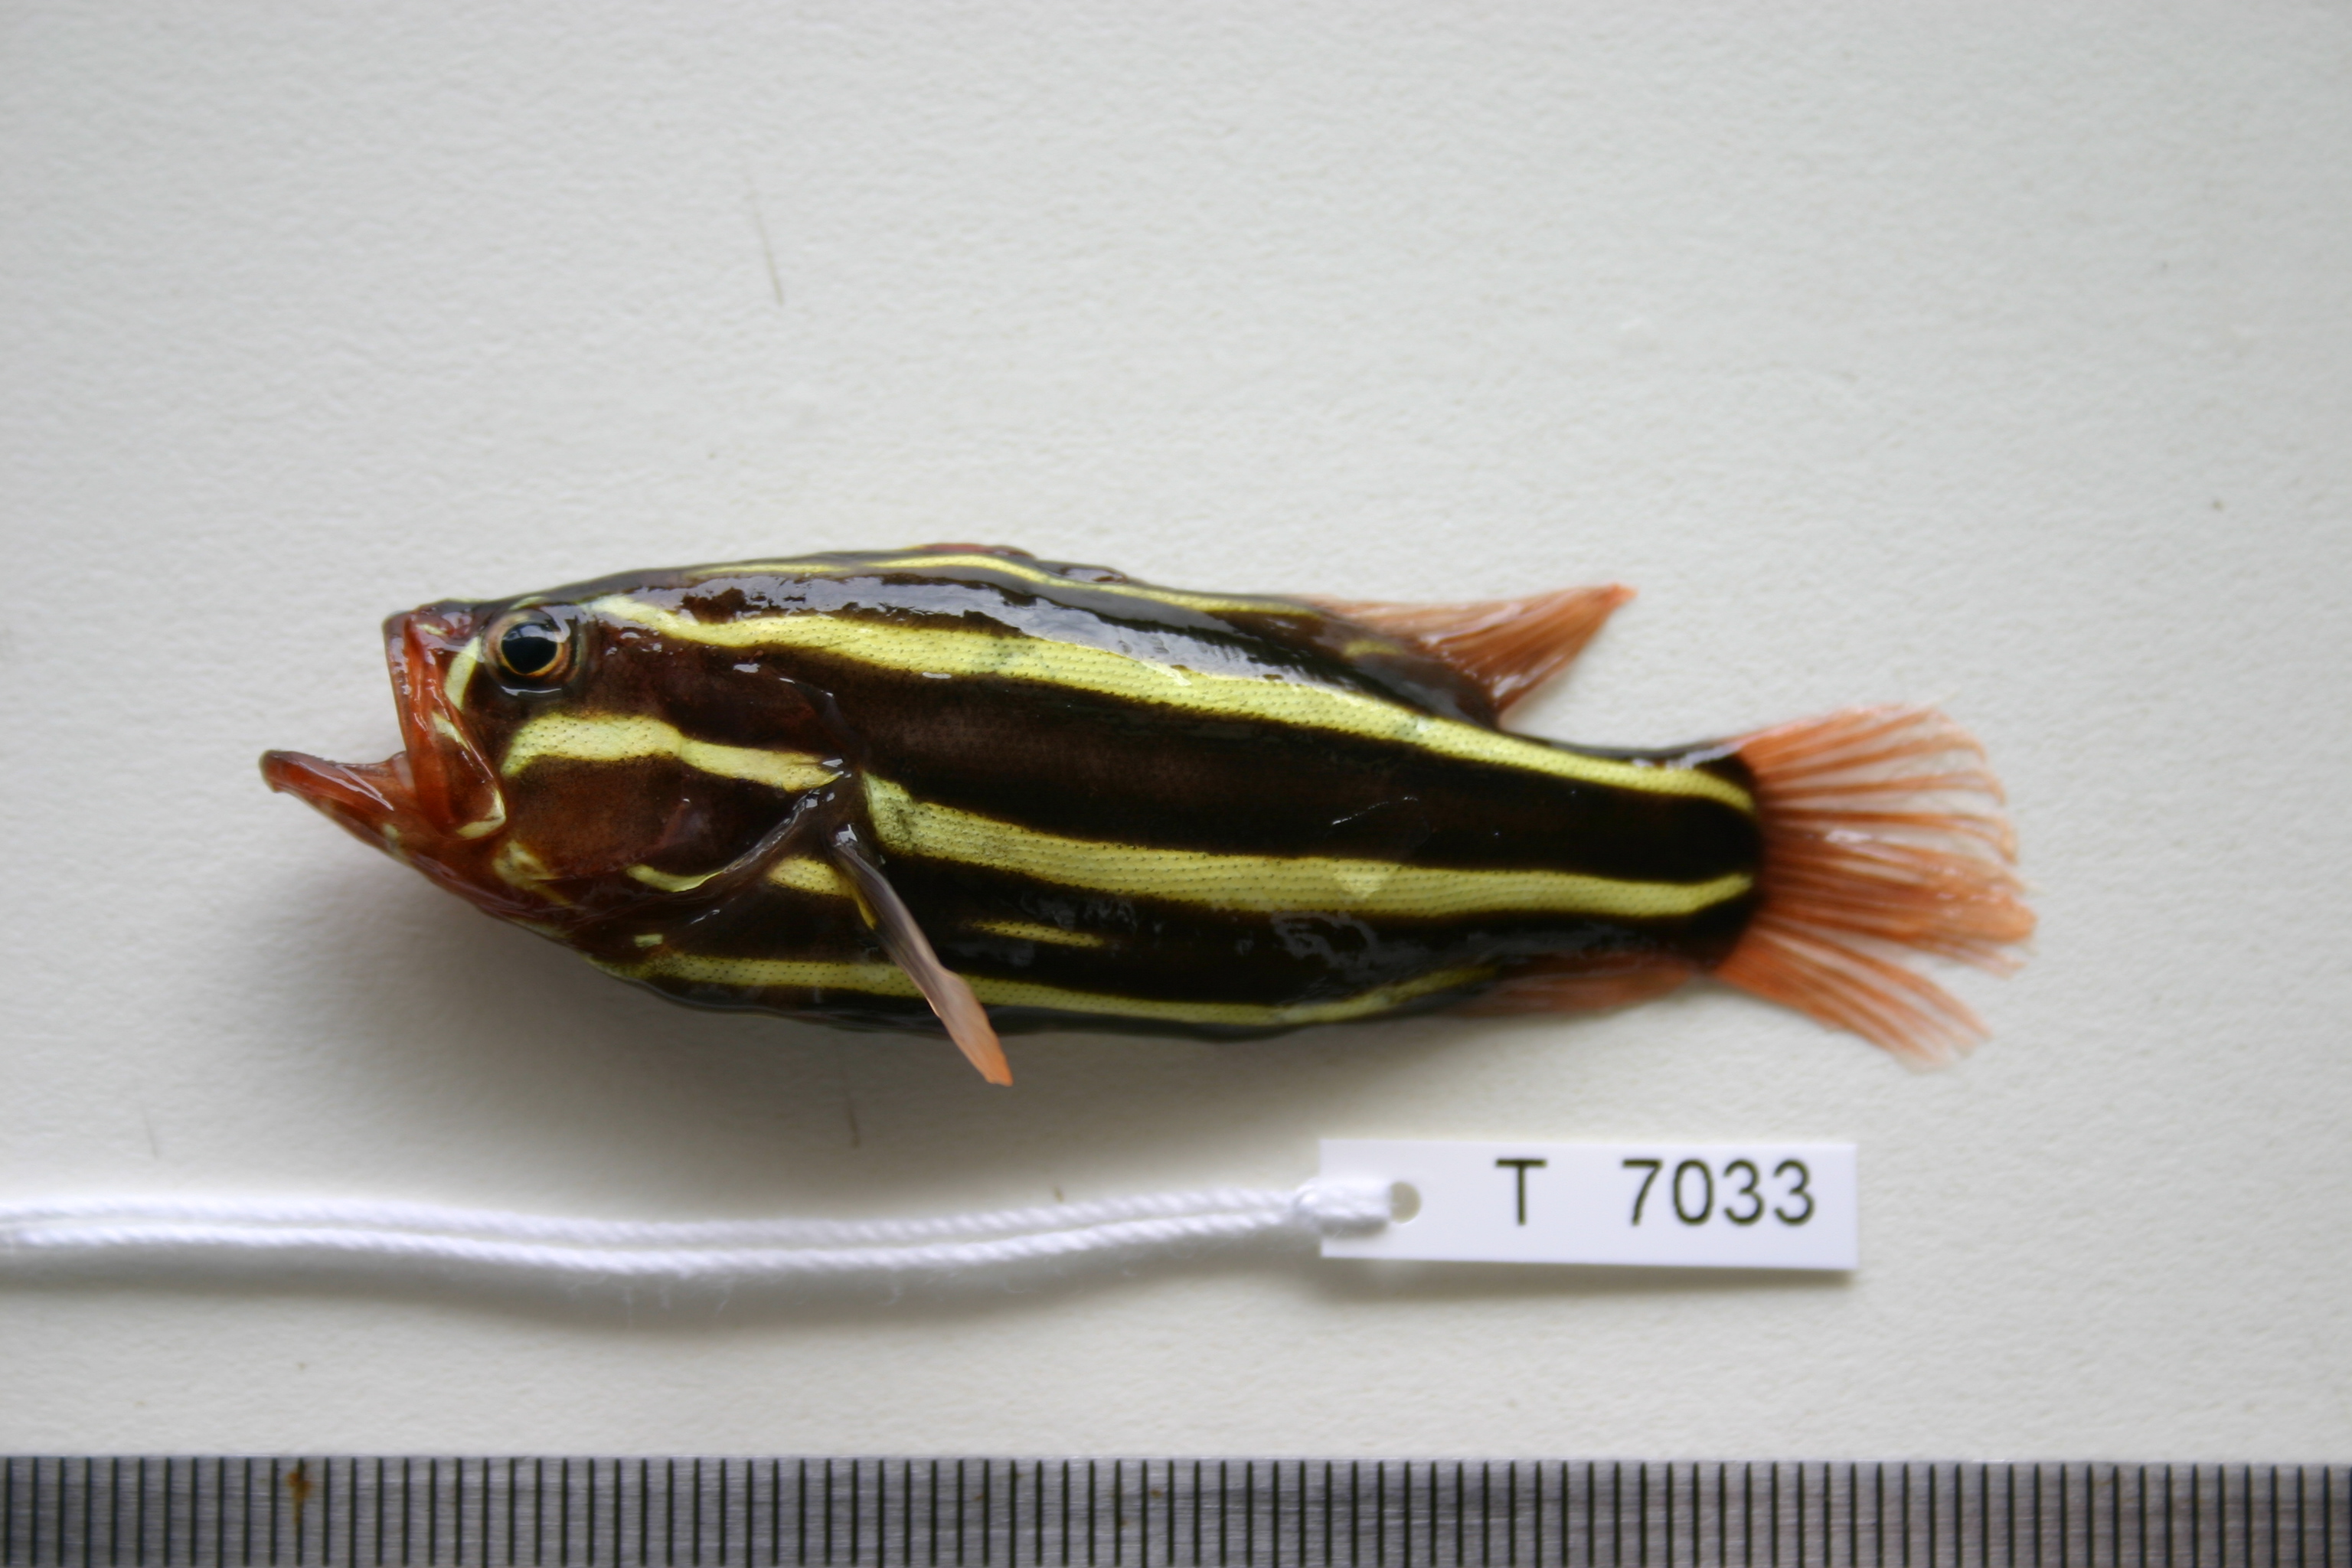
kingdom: Animalia
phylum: Chordata
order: Perciformes
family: Serranidae
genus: Grammistes
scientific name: Grammistes sexlineatus
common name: Sixline soapfish
